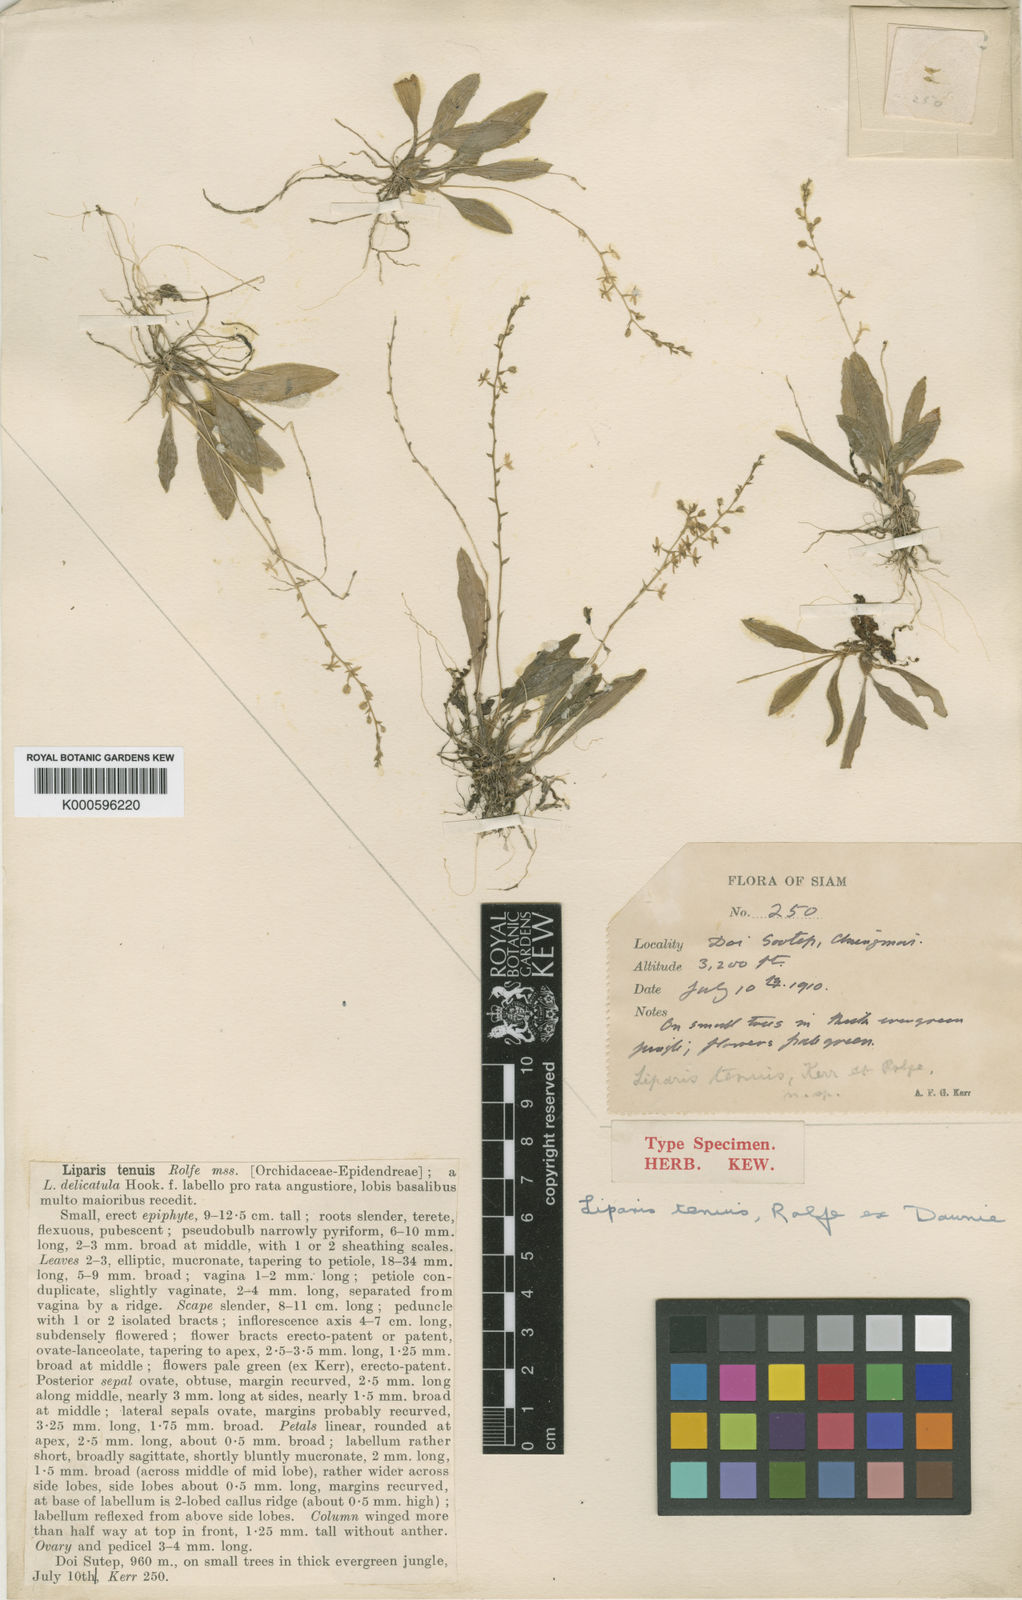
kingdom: Plantae
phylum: Tracheophyta
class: Liliopsida
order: Asparagales
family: Orchidaceae
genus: Liparis
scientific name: Liparis tenuis
